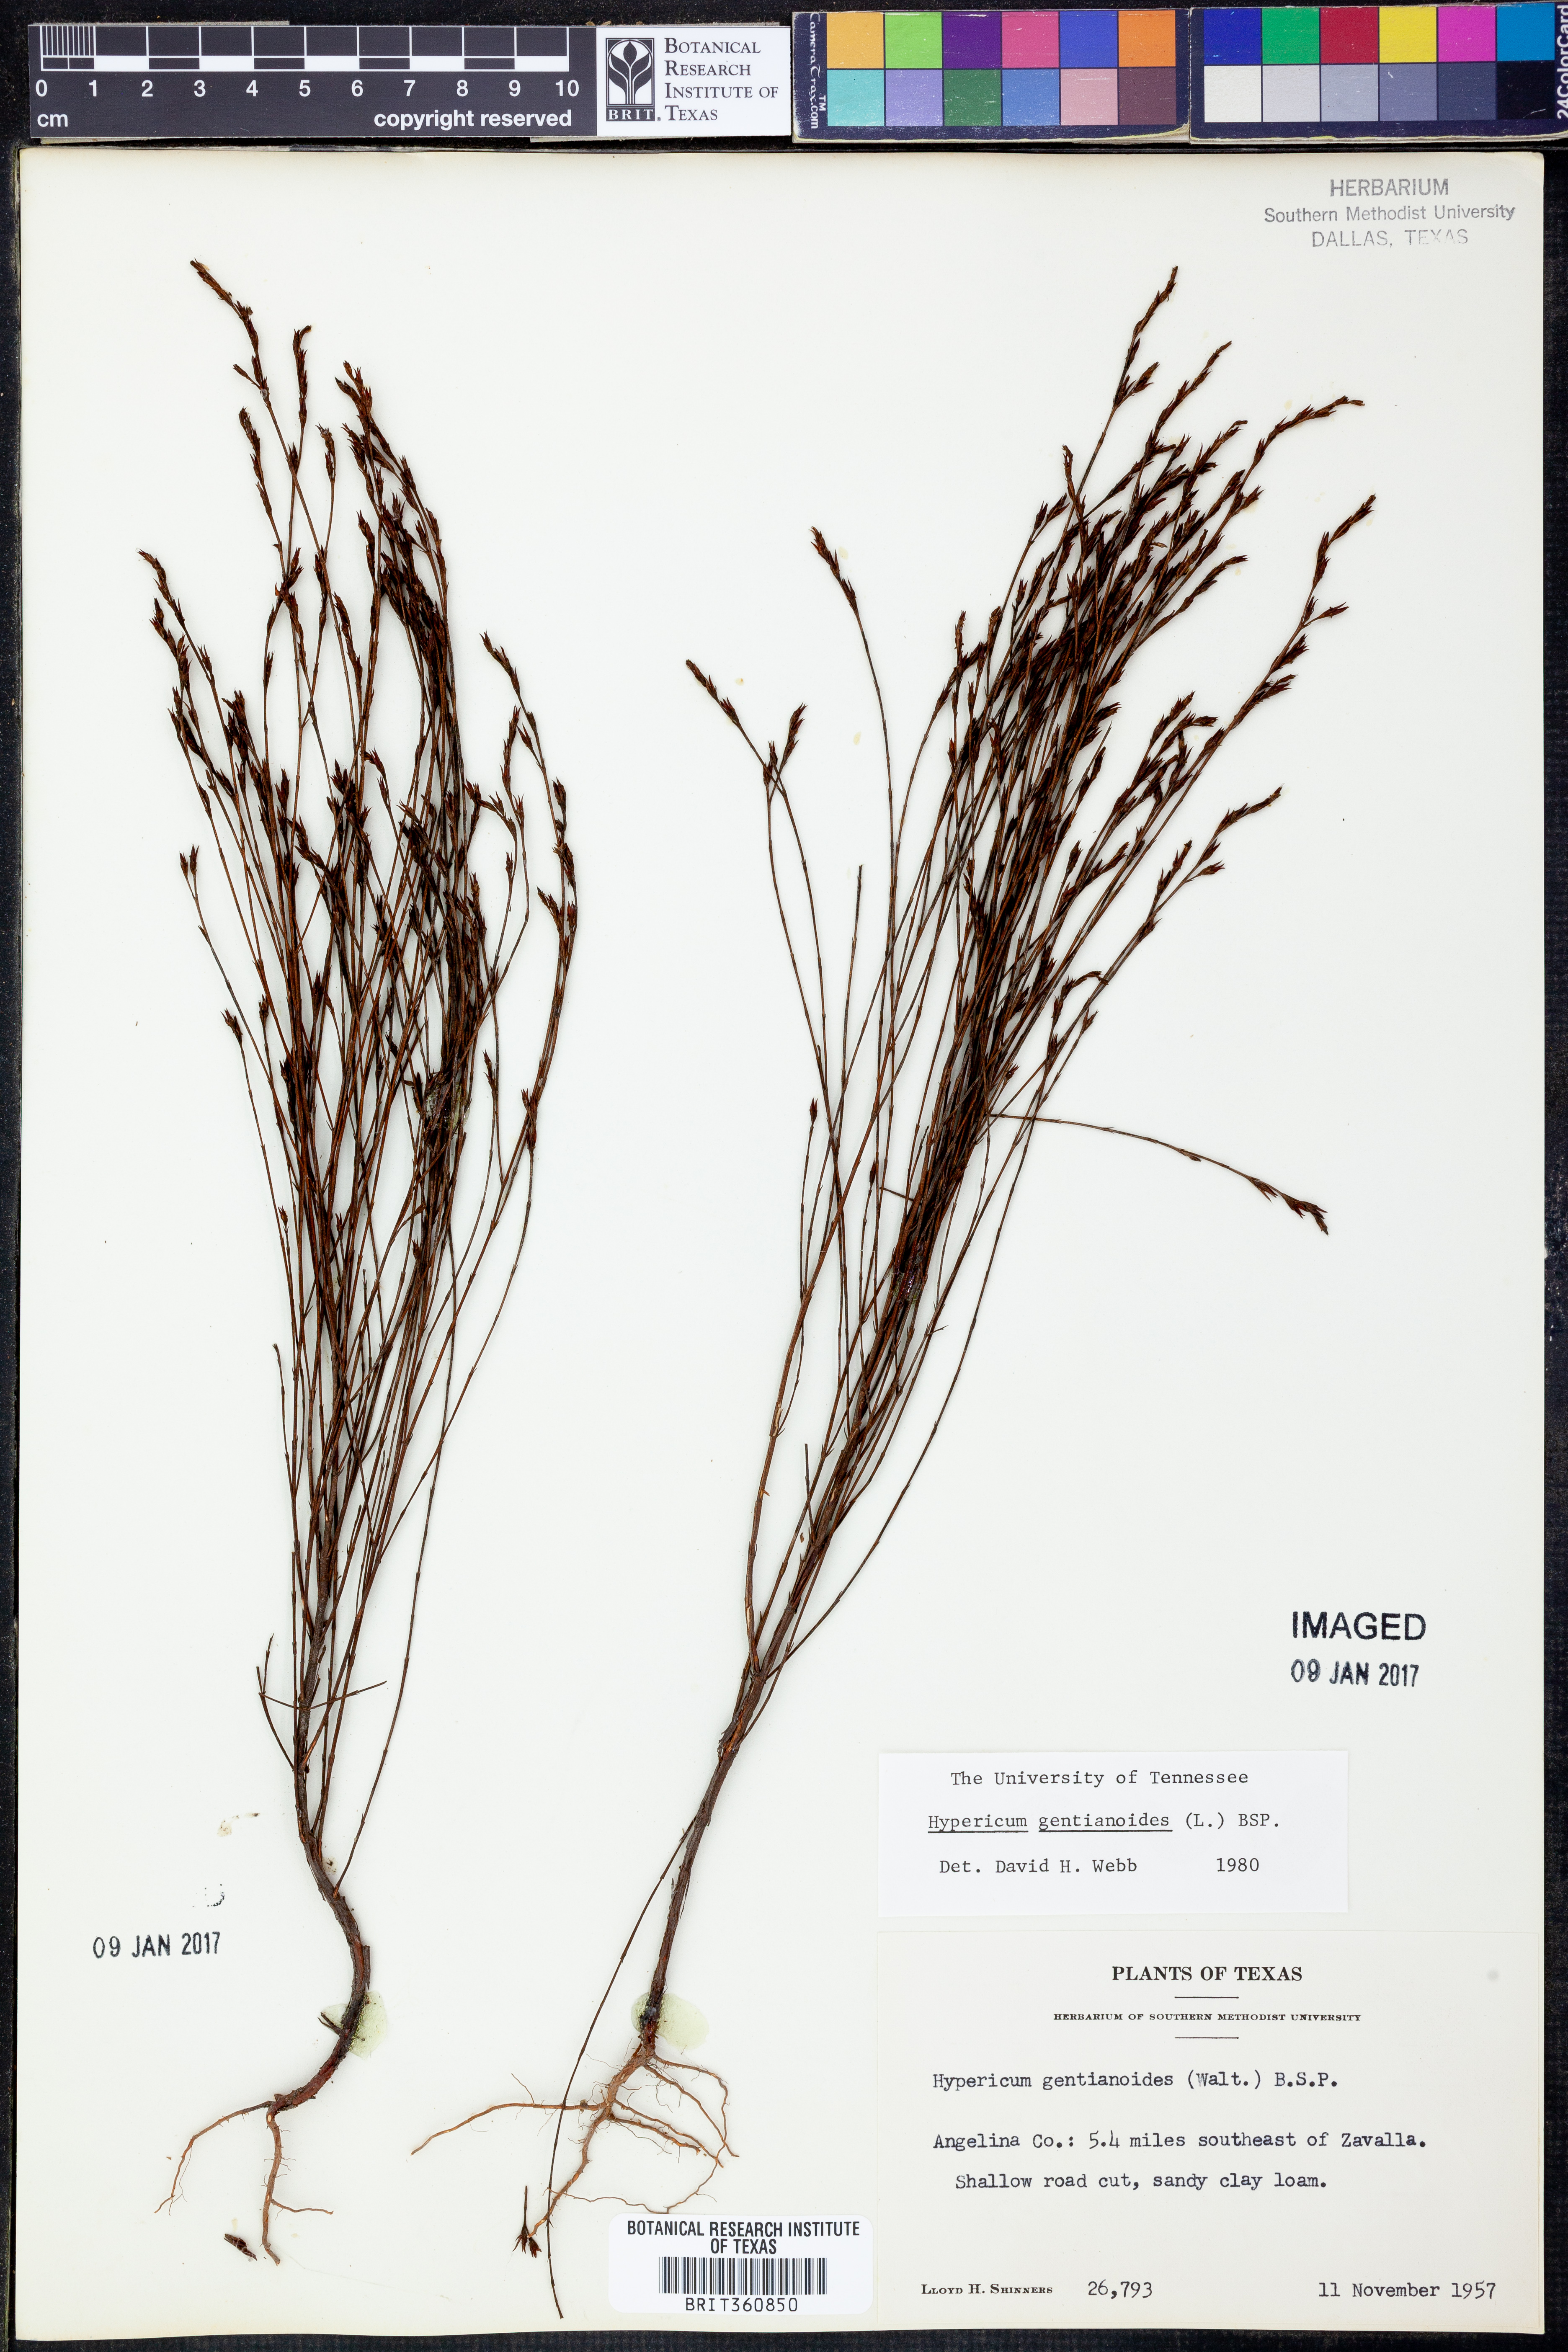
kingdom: Plantae
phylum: Tracheophyta
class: Magnoliopsida
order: Malpighiales
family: Hypericaceae
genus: Hypericum
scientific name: Hypericum gentianoides
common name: Gentian-leaved st. john's-wort
